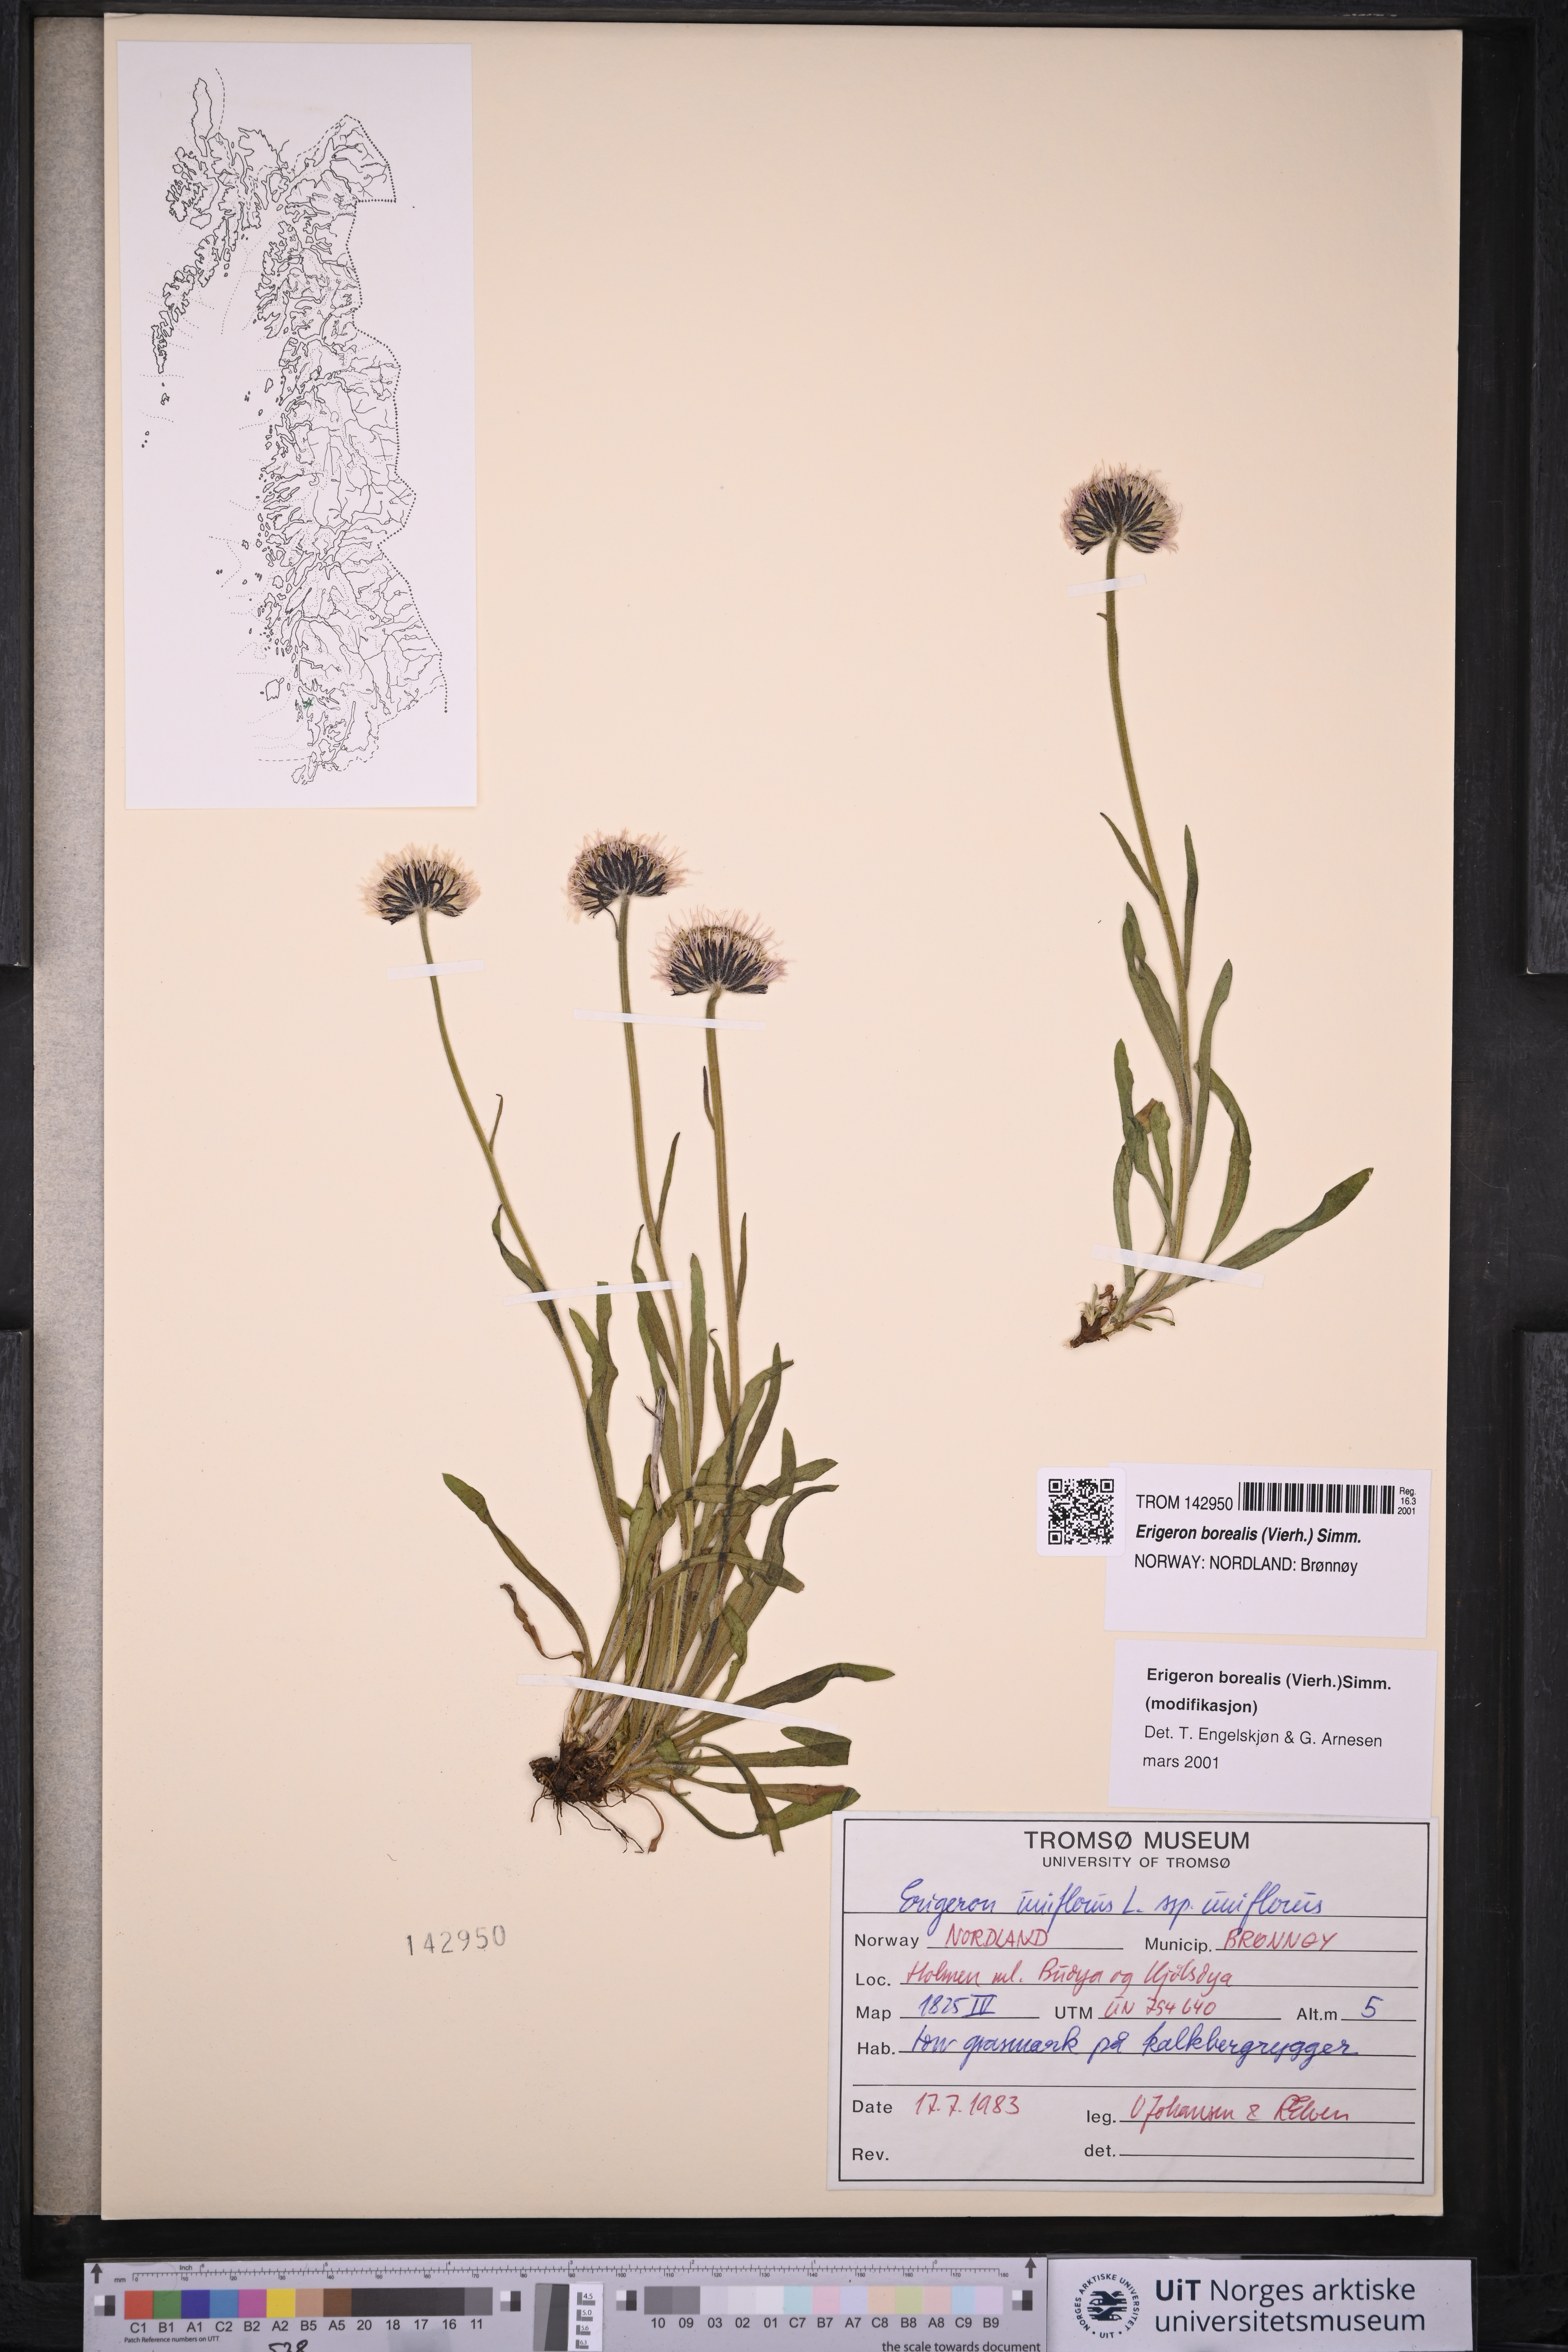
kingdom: Plantae
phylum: Tracheophyta
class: Magnoliopsida
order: Asterales
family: Asteraceae
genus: Erigeron
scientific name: Erigeron borealis
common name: Alpine fleabane
